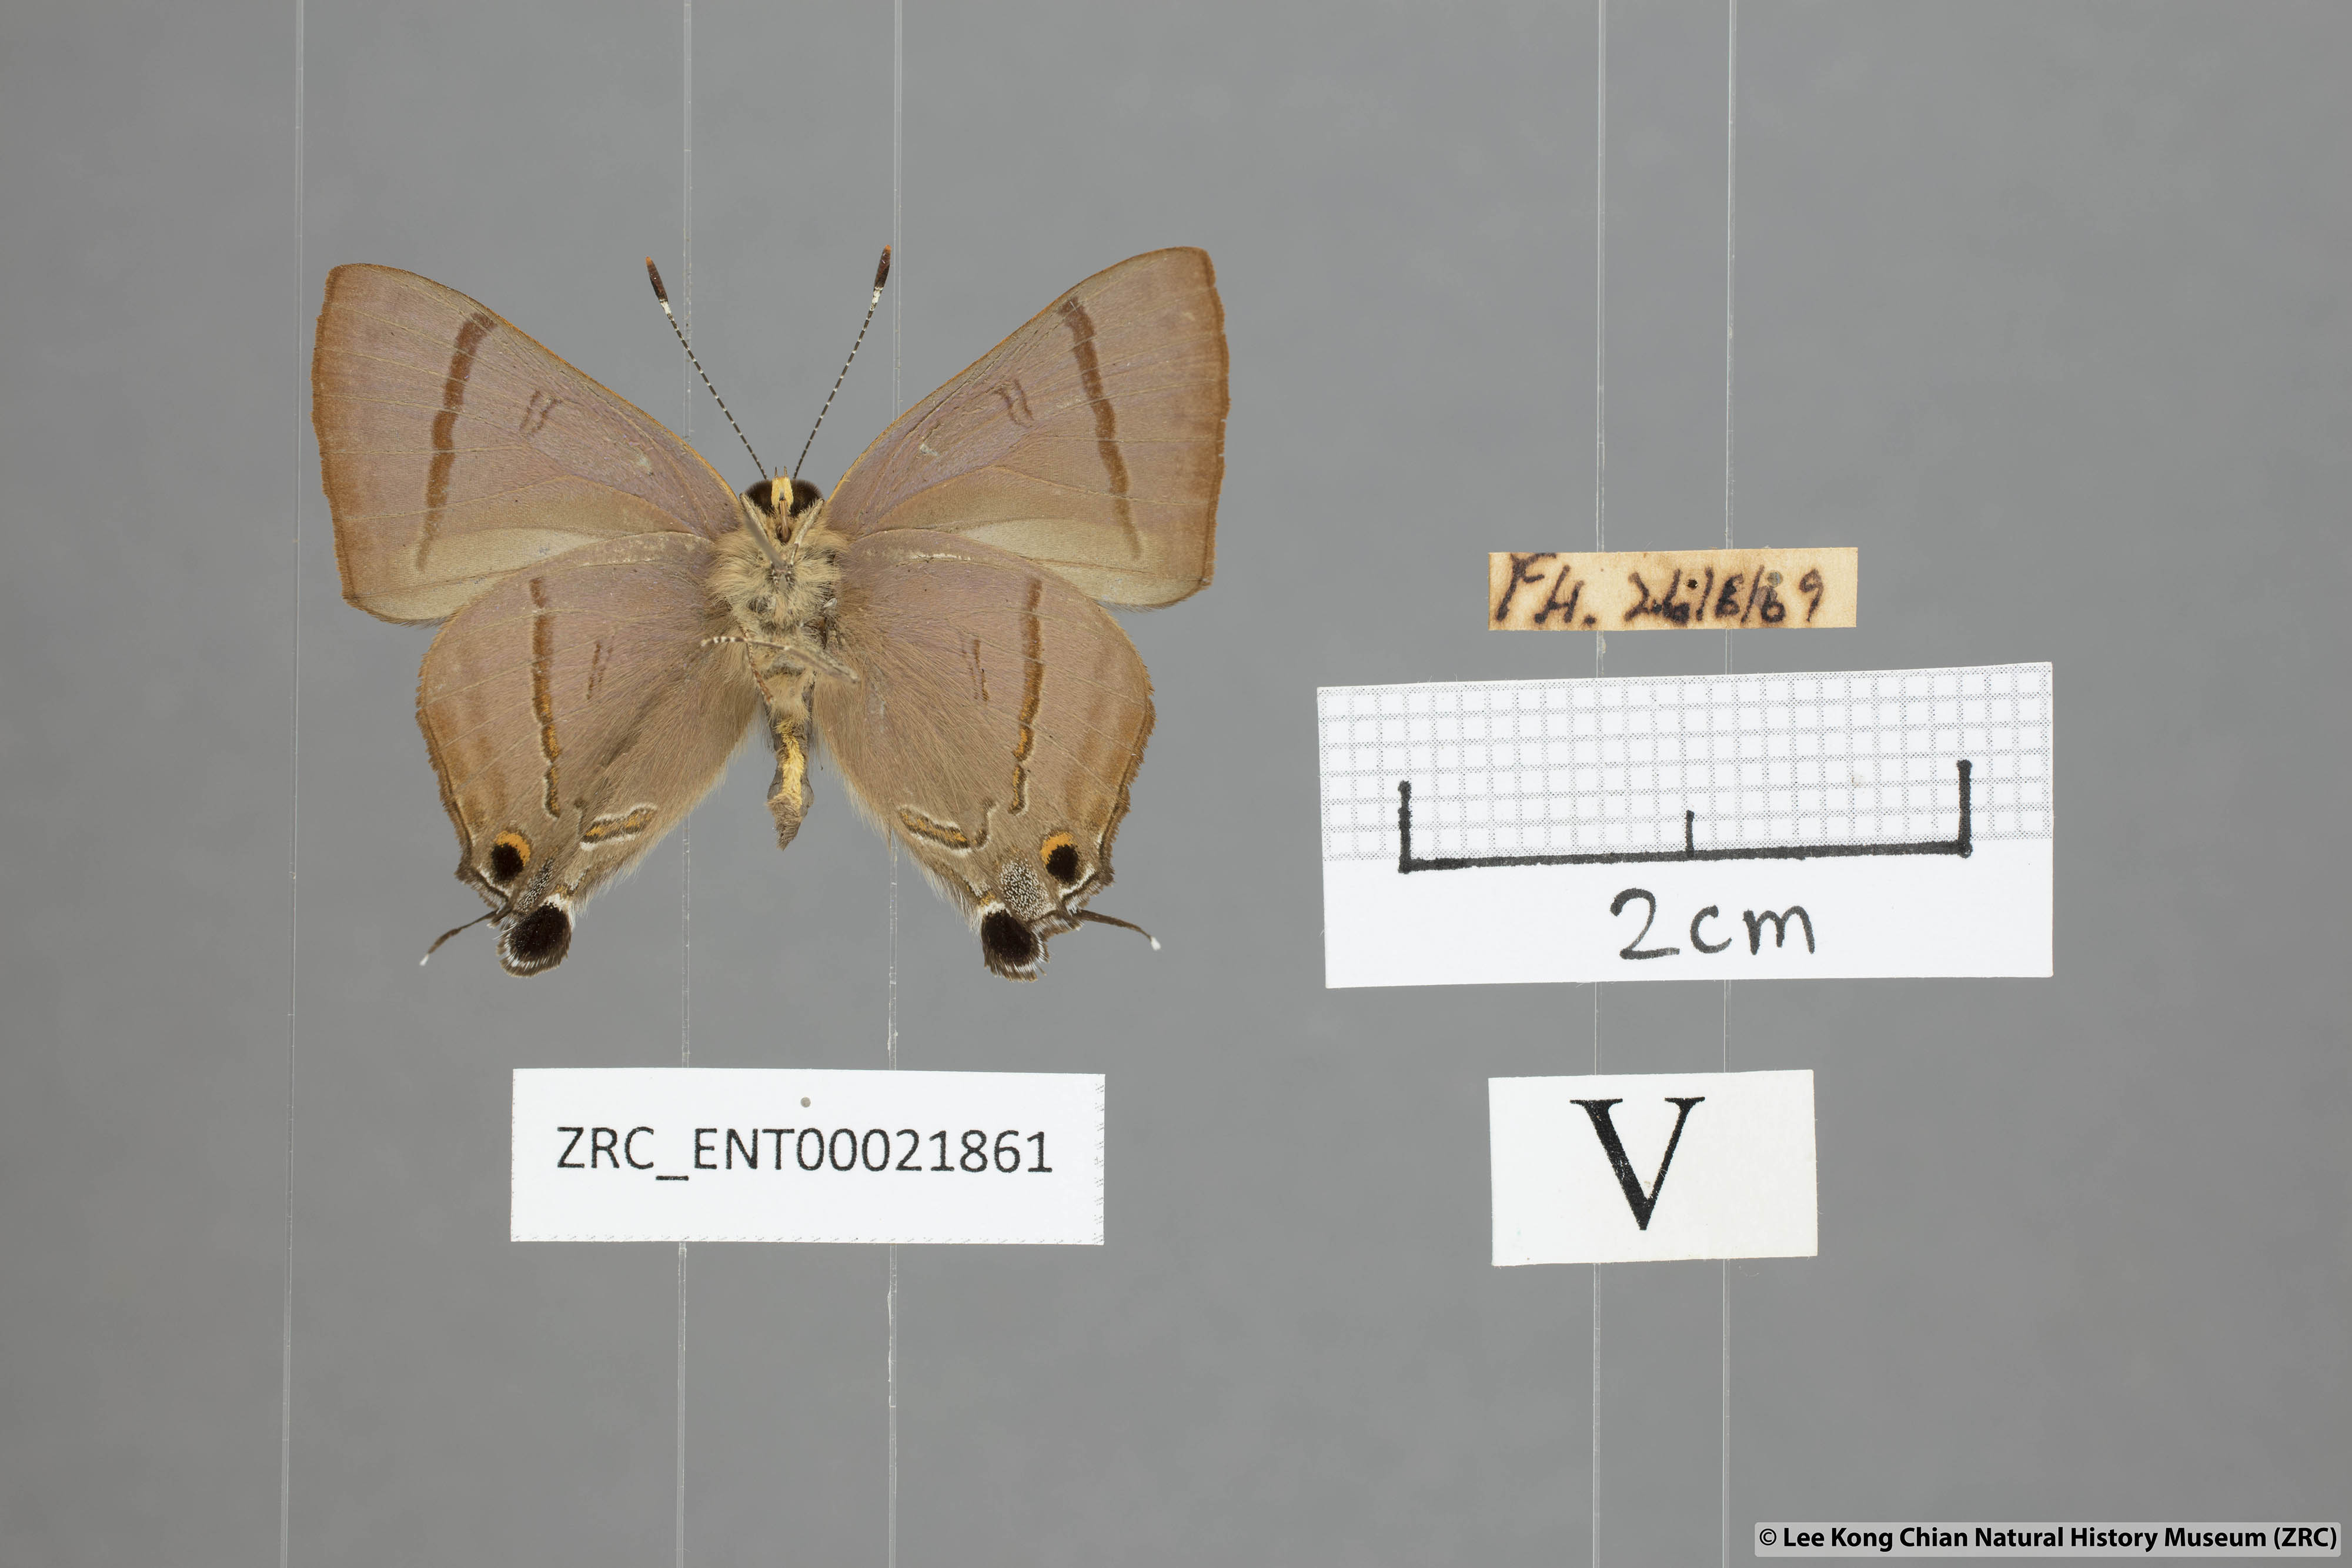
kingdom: Animalia
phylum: Arthropoda
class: Insecta
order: Lepidoptera
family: Lycaenidae
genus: Rapala
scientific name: Rapala nissa
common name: Common flash
